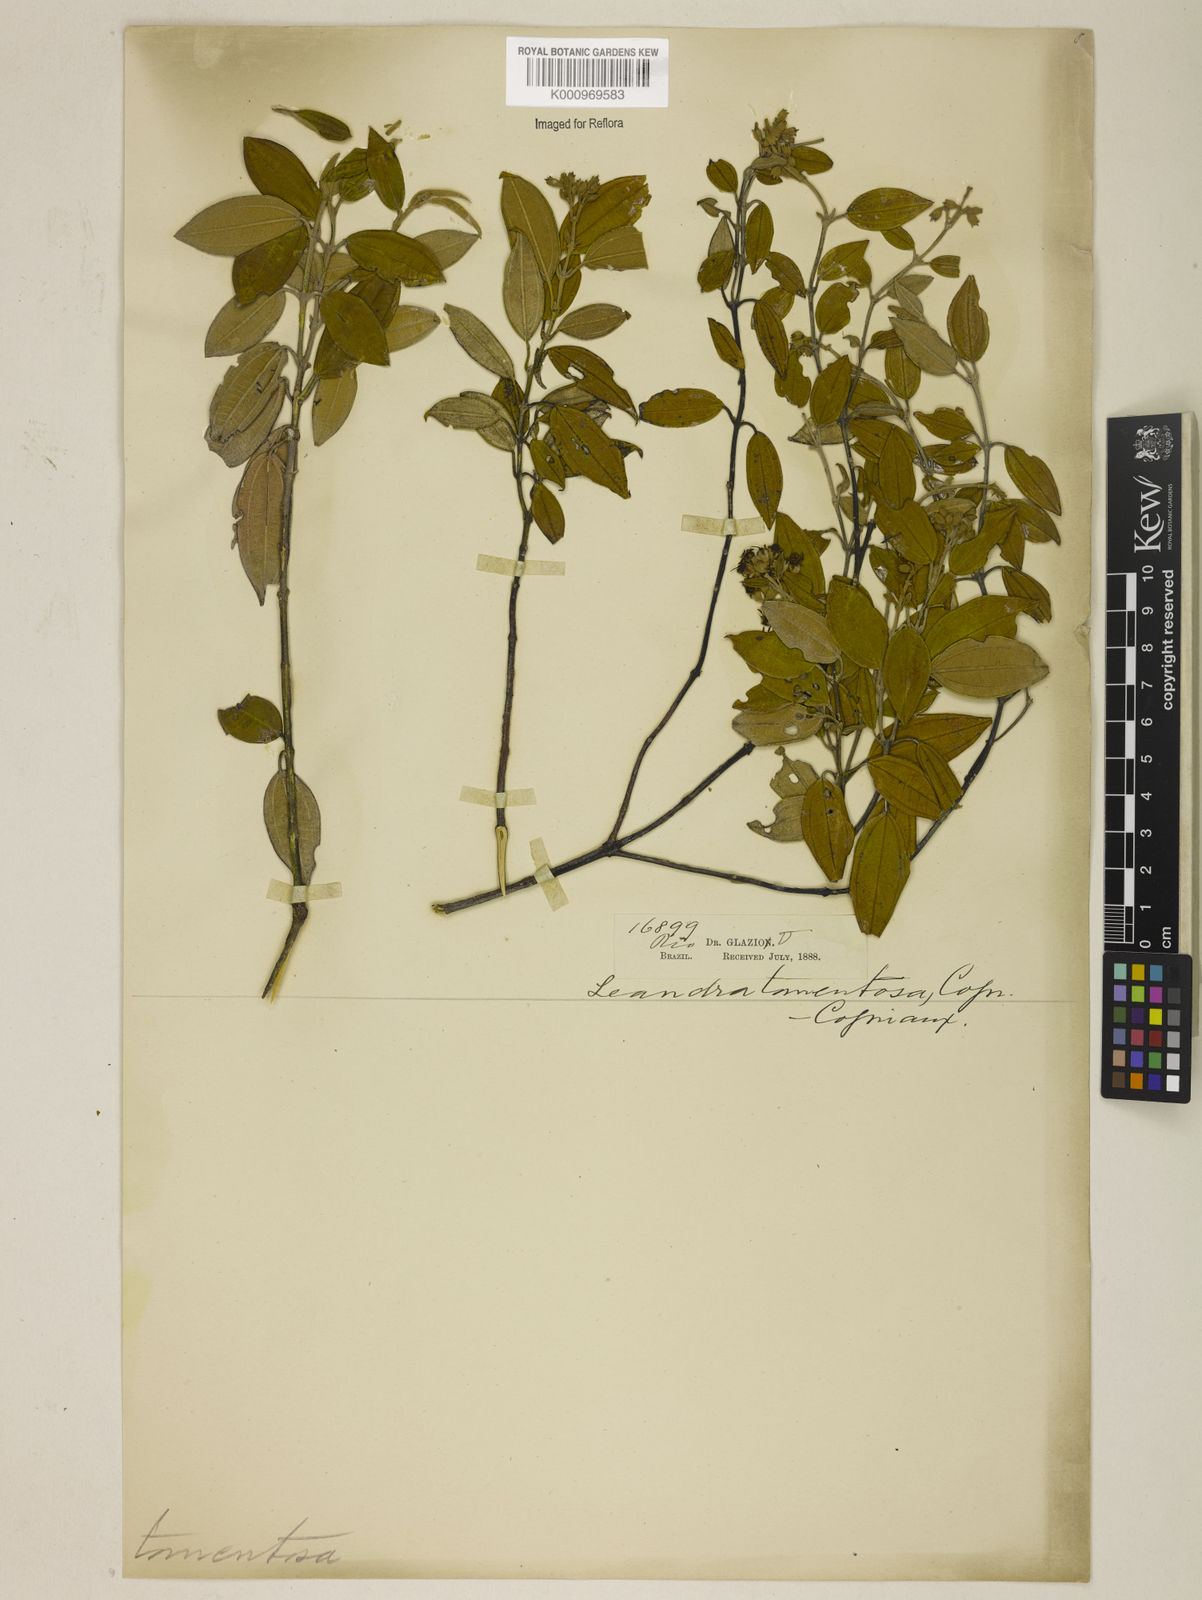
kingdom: Plantae
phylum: Tracheophyta
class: Magnoliopsida
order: Myrtales
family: Melastomataceae
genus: Miconia
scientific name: Miconia leatomentosa
